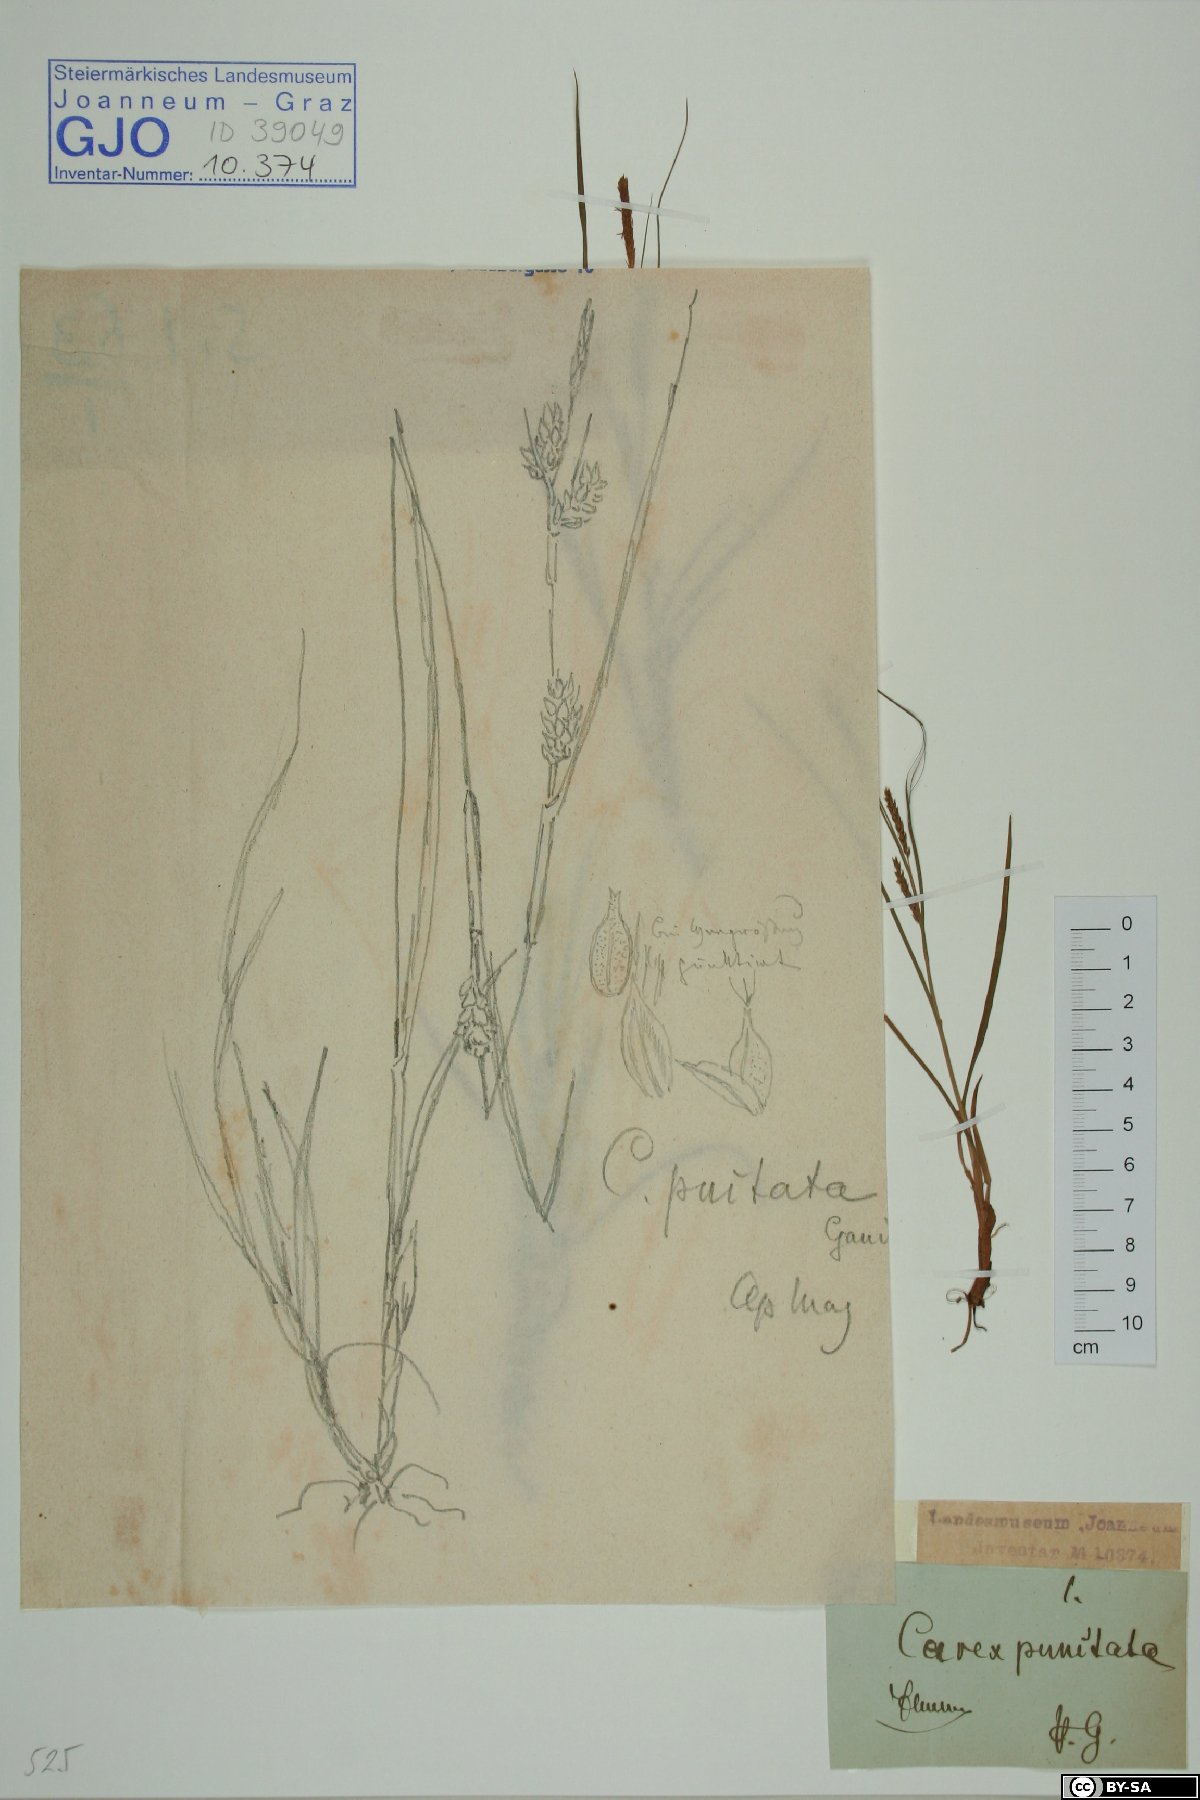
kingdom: Plantae
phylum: Tracheophyta
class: Liliopsida
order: Poales
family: Cyperaceae
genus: Carex
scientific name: Carex punctata
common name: Dotted sedge
